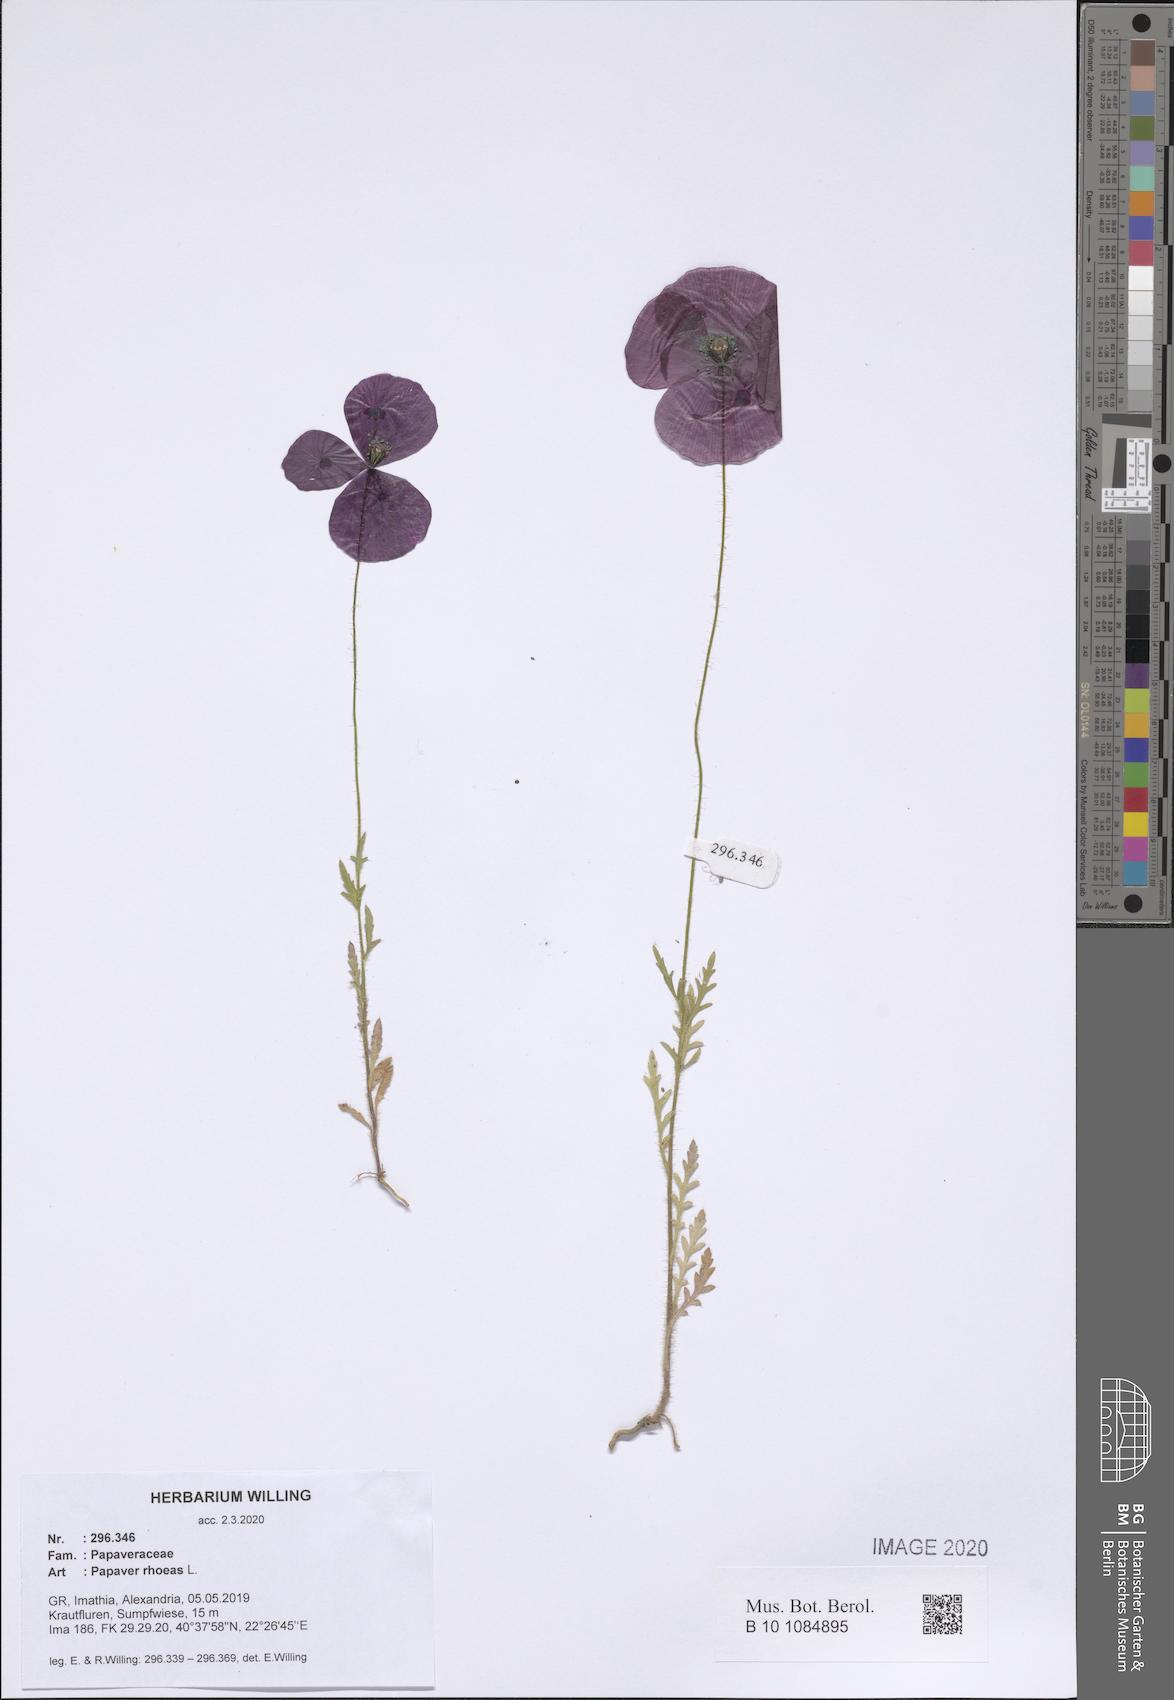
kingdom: Plantae
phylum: Tracheophyta
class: Magnoliopsida
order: Ranunculales
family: Papaveraceae
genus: Papaver
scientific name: Papaver rhoeas
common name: Corn poppy
